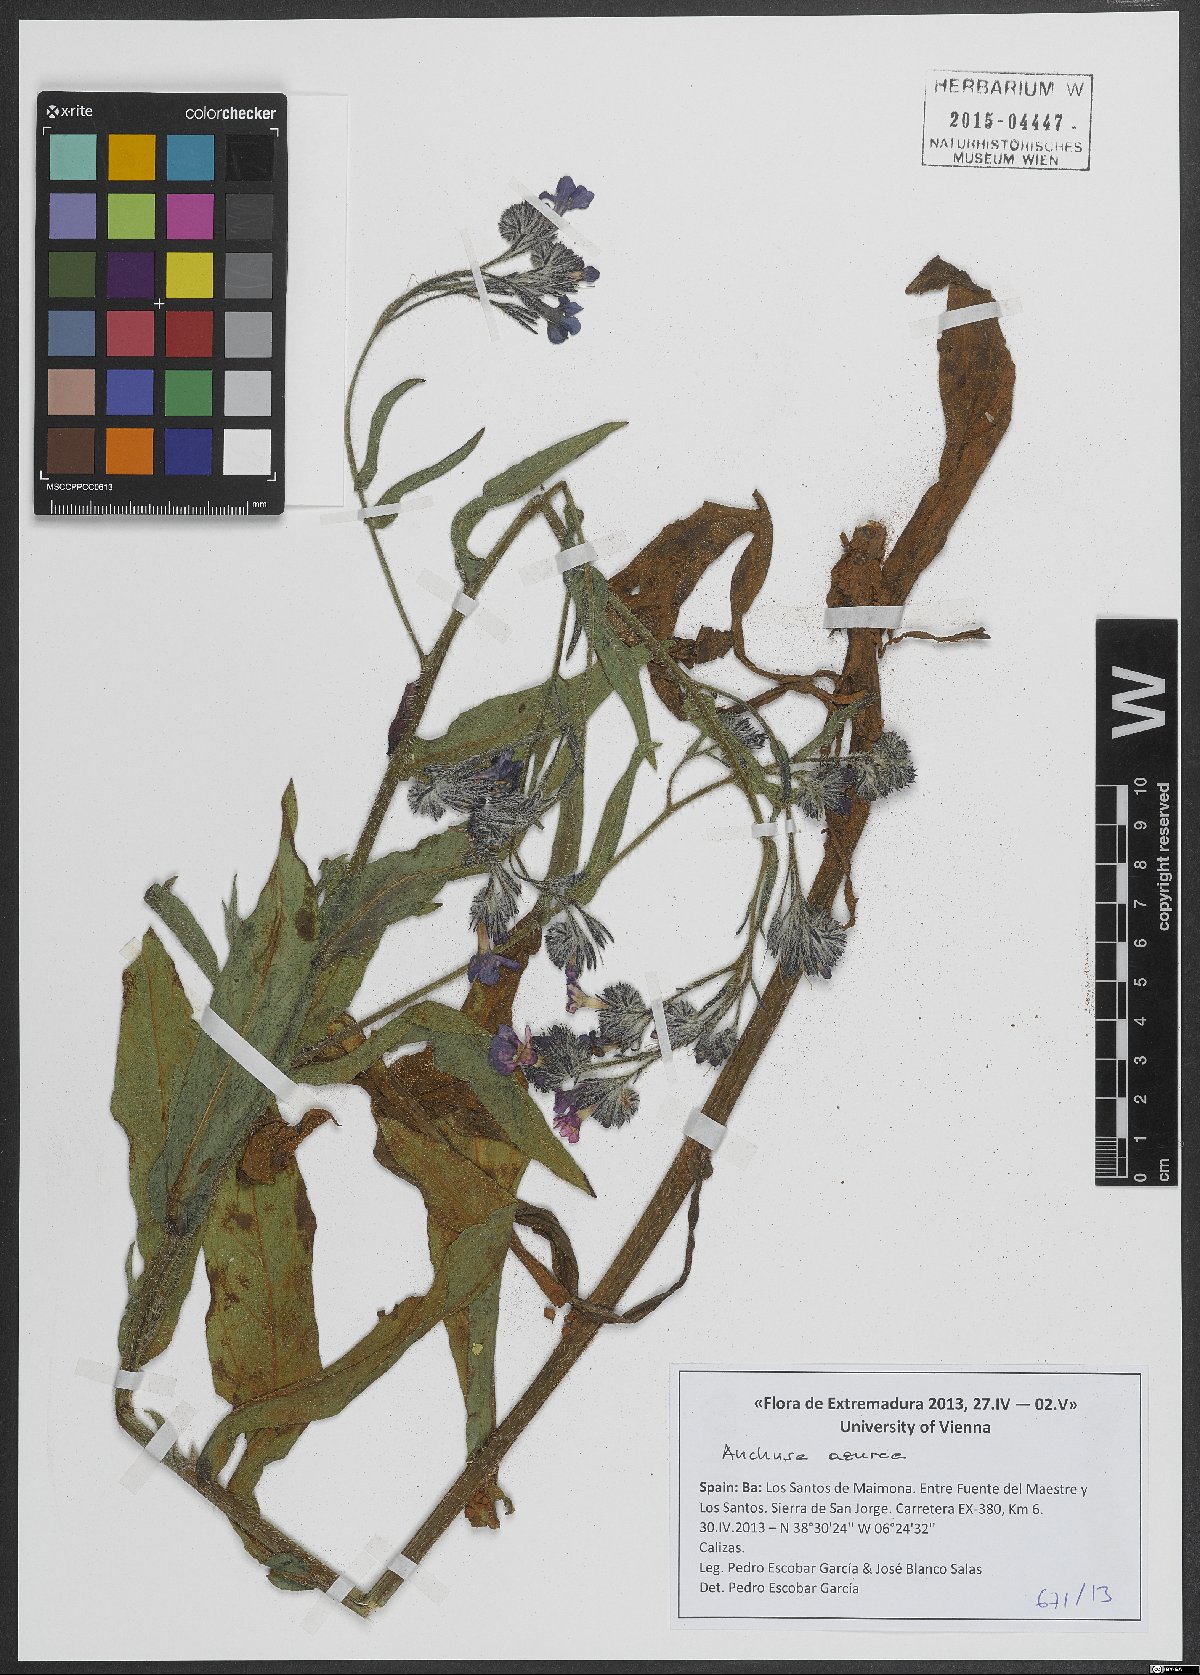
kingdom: Plantae
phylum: Tracheophyta
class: Magnoliopsida
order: Boraginales
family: Boraginaceae
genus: Anchusa
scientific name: Anchusa azurea
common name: Garden anchusa
